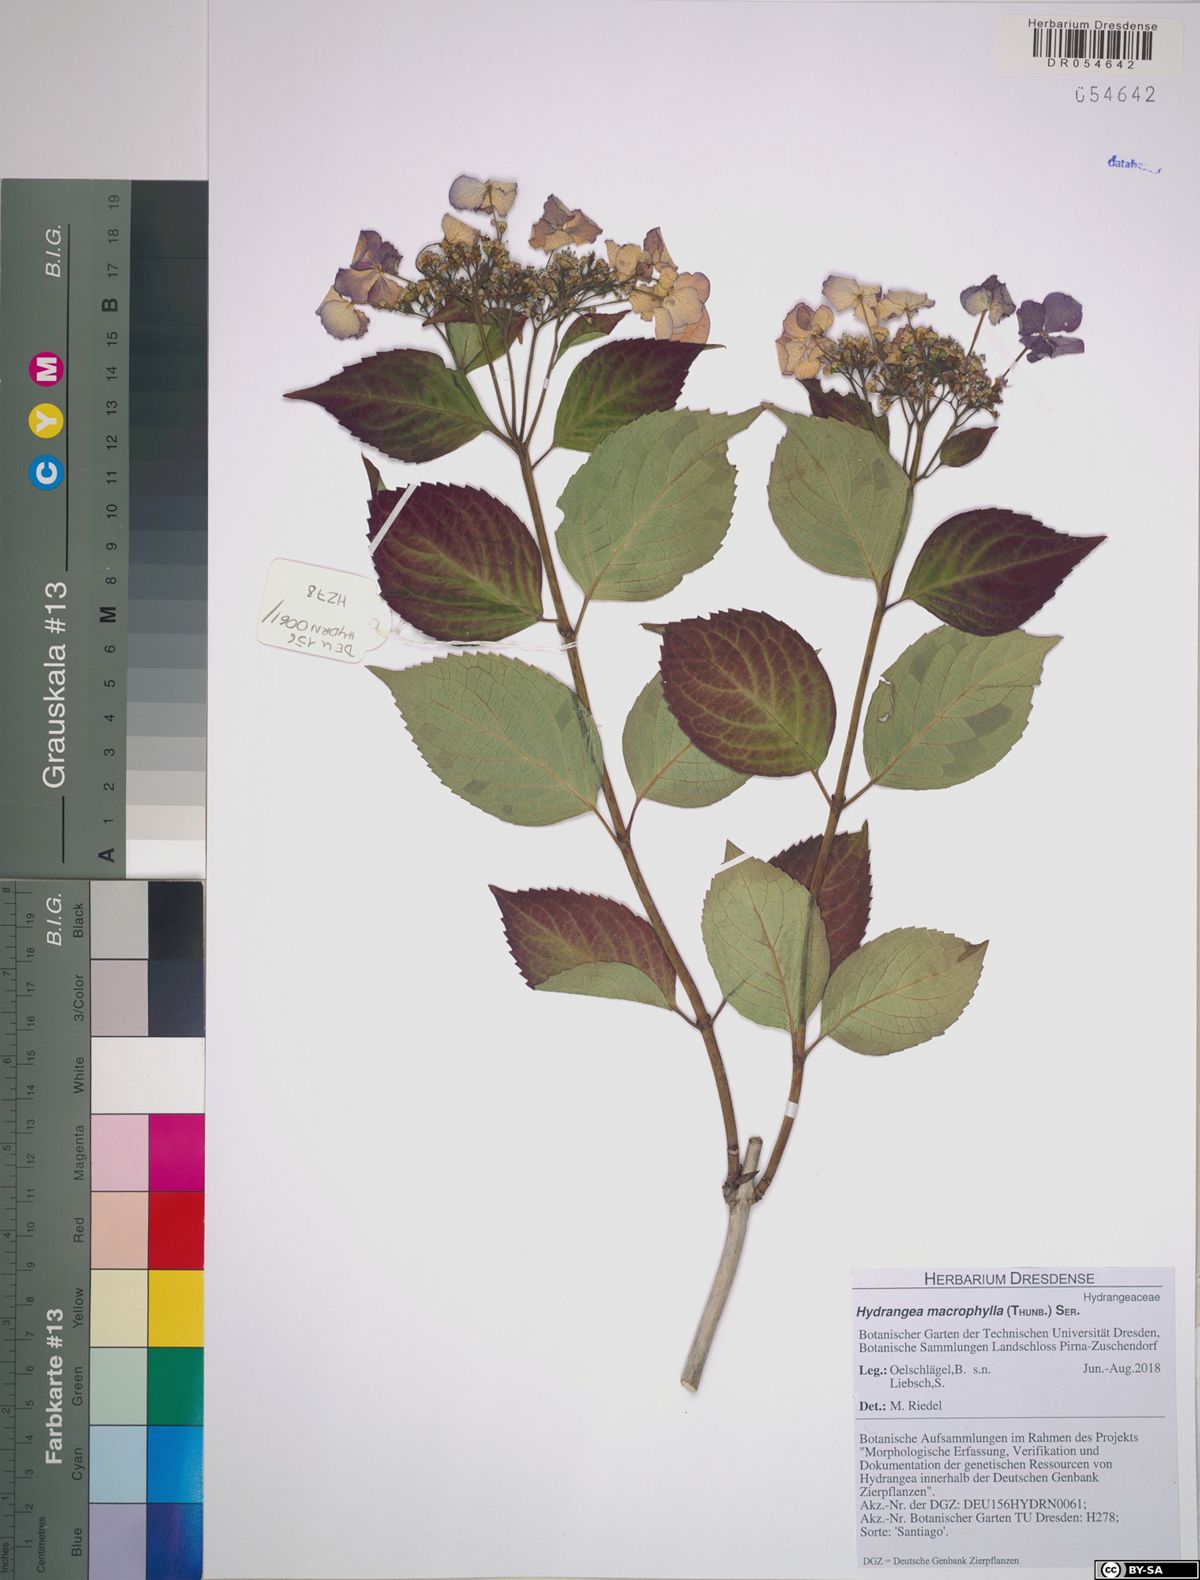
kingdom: Plantae
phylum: Tracheophyta
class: Magnoliopsida
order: Cornales
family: Hydrangeaceae
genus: Hydrangea
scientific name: Hydrangea macrophylla
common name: Hydrangea
